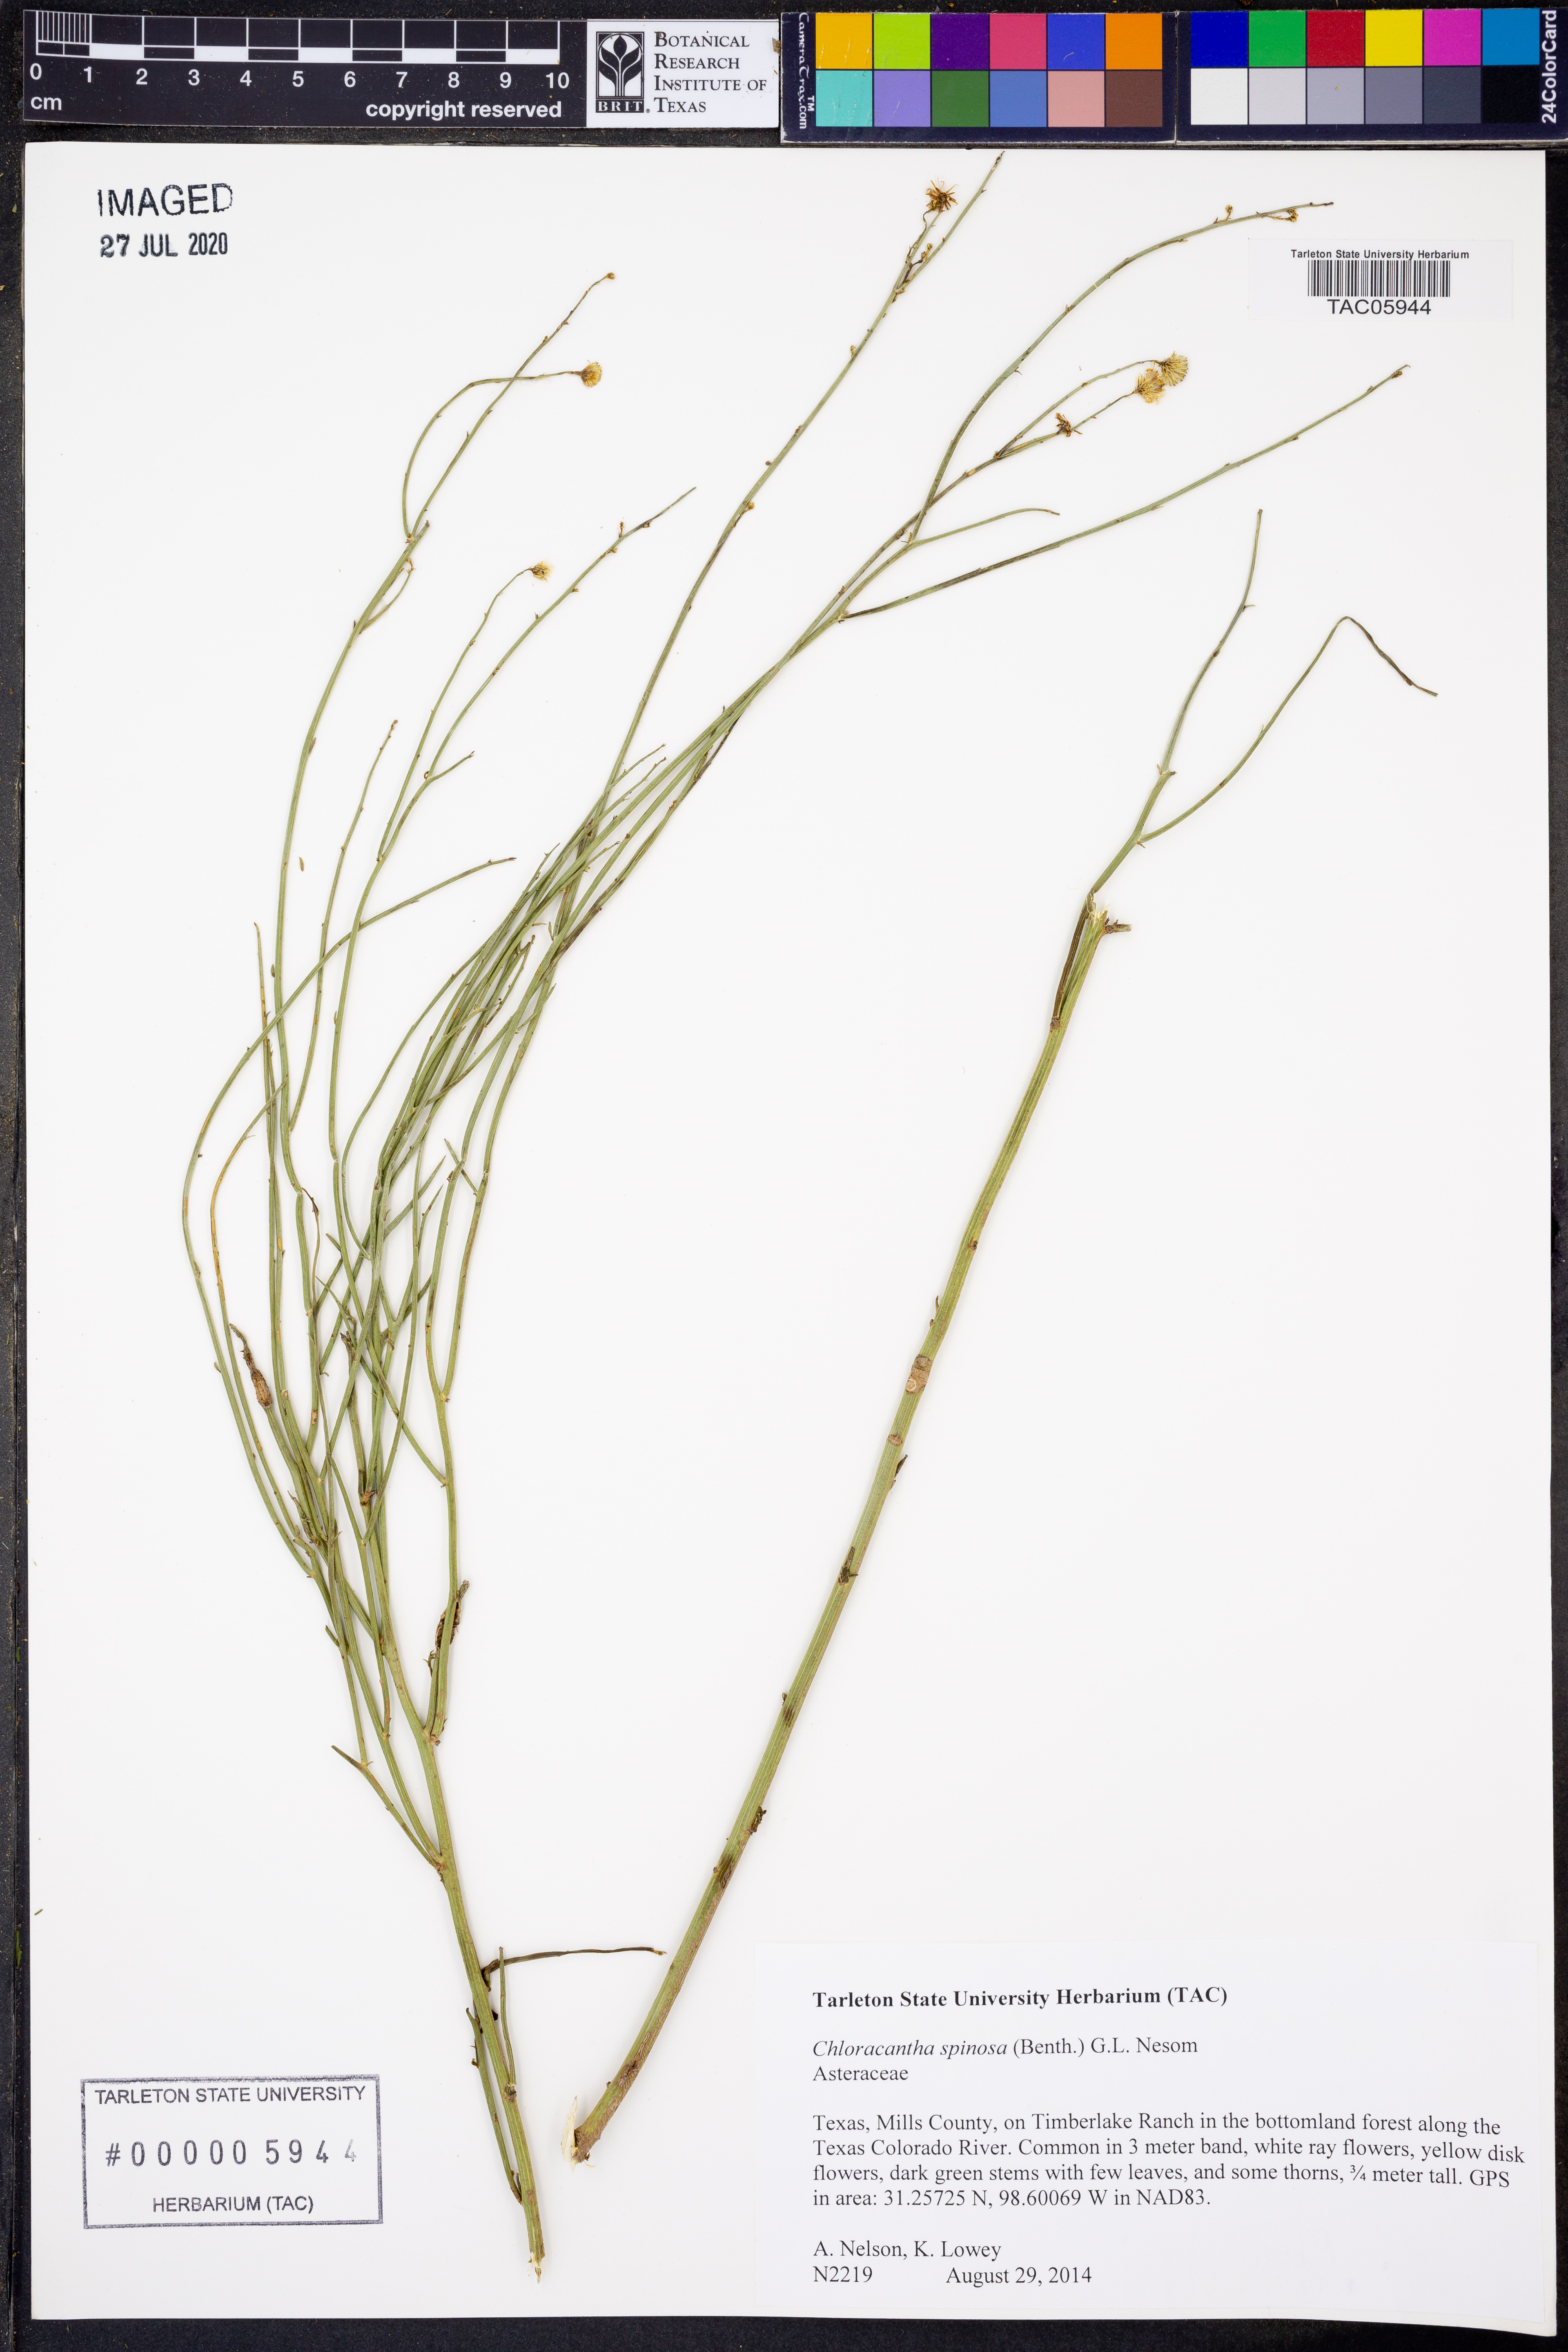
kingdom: Plantae
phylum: Tracheophyta
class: Magnoliopsida
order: Asterales
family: Asteraceae
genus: Chloracantha
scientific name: Chloracantha spinosa
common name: Mexican devilweed
